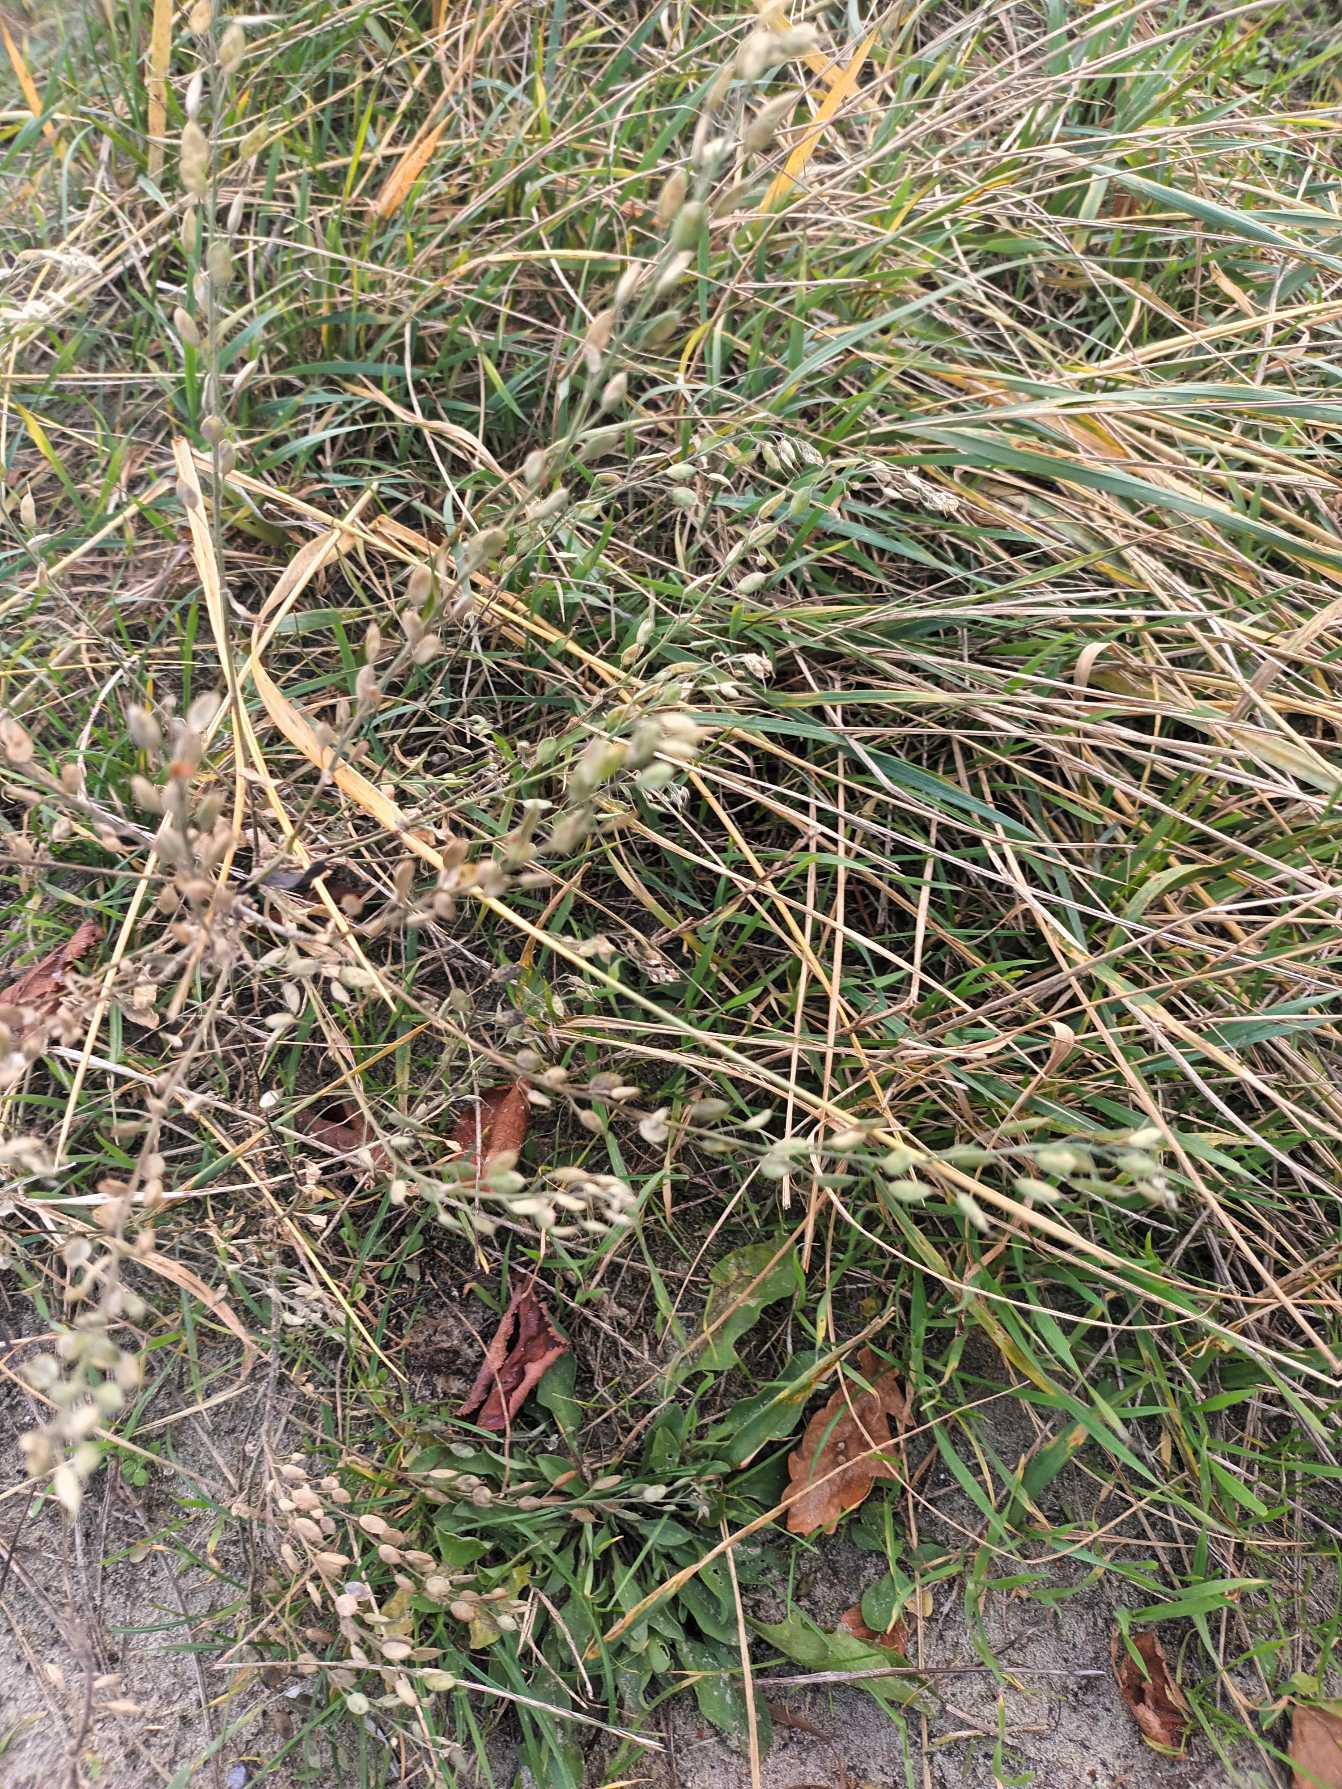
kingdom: Plantae
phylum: Tracheophyta
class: Magnoliopsida
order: Brassicales
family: Brassicaceae
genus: Berteroa
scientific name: Berteroa incana
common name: Kløvplade
